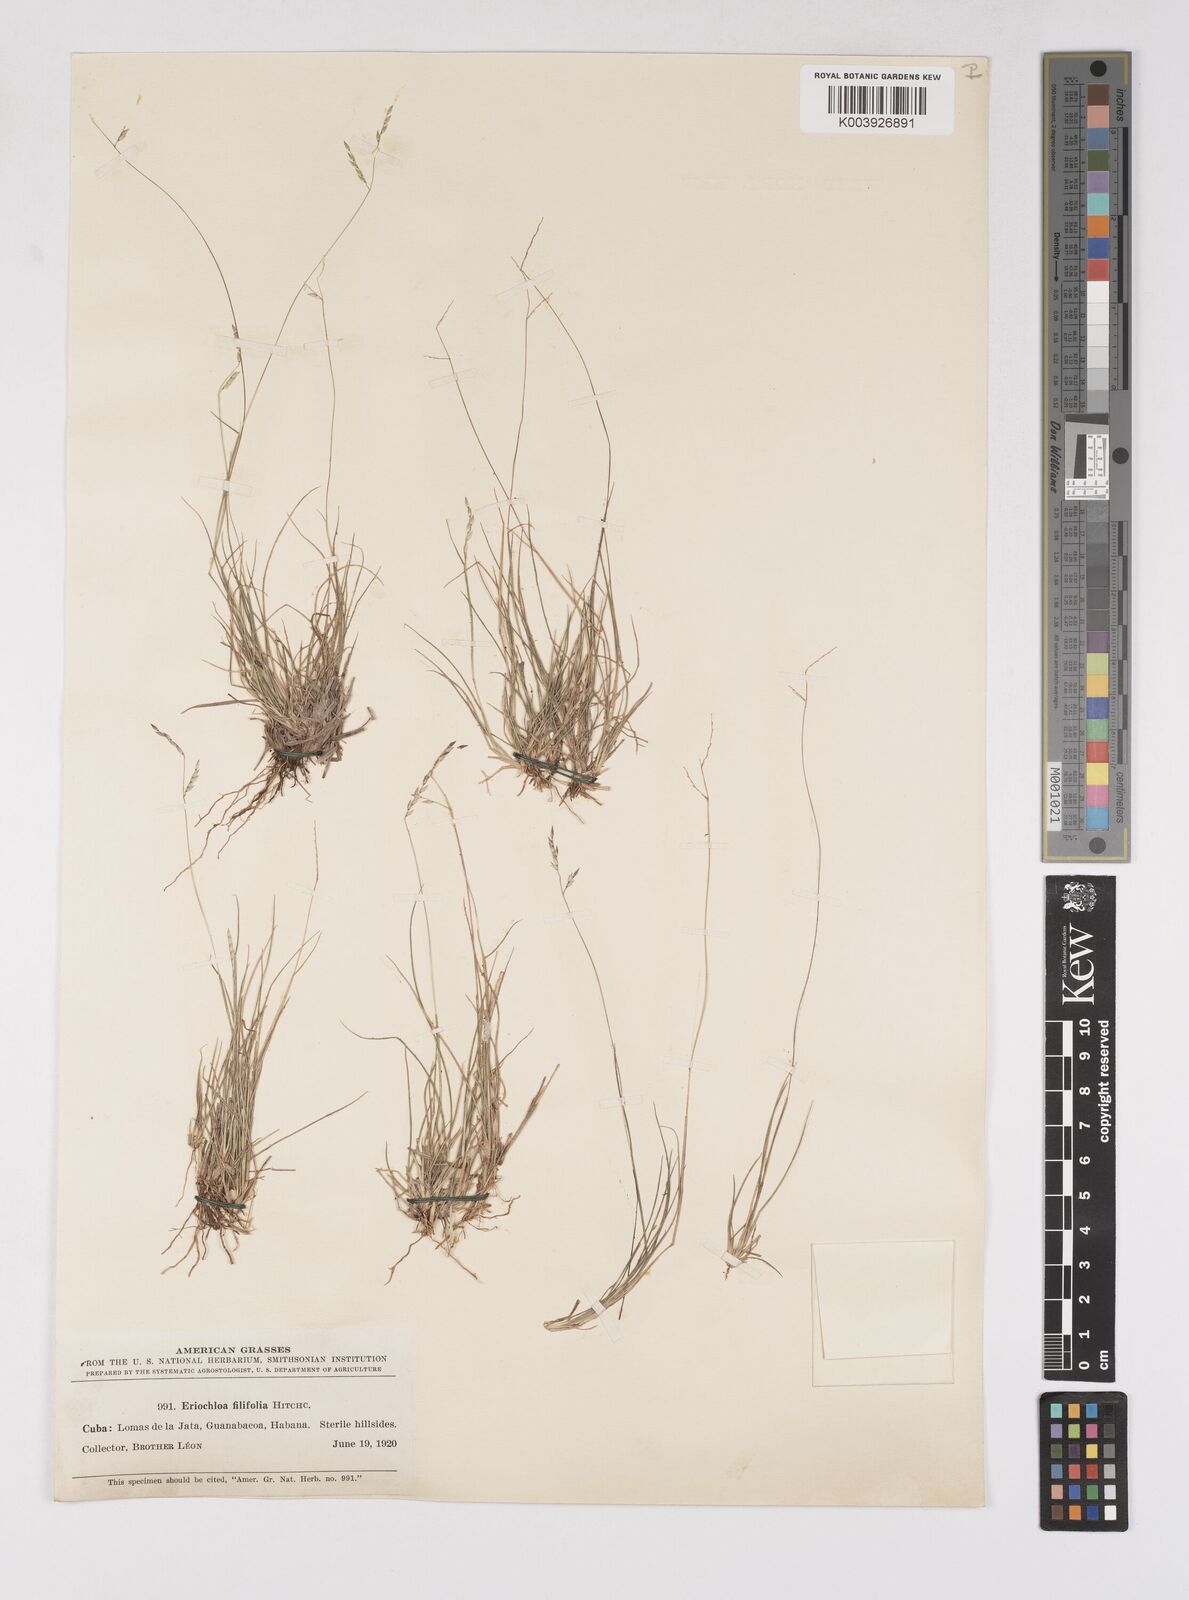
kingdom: Plantae
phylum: Tracheophyta
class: Liliopsida
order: Poales
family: Poaceae
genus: Eriochloa
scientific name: Eriochloa setosa
